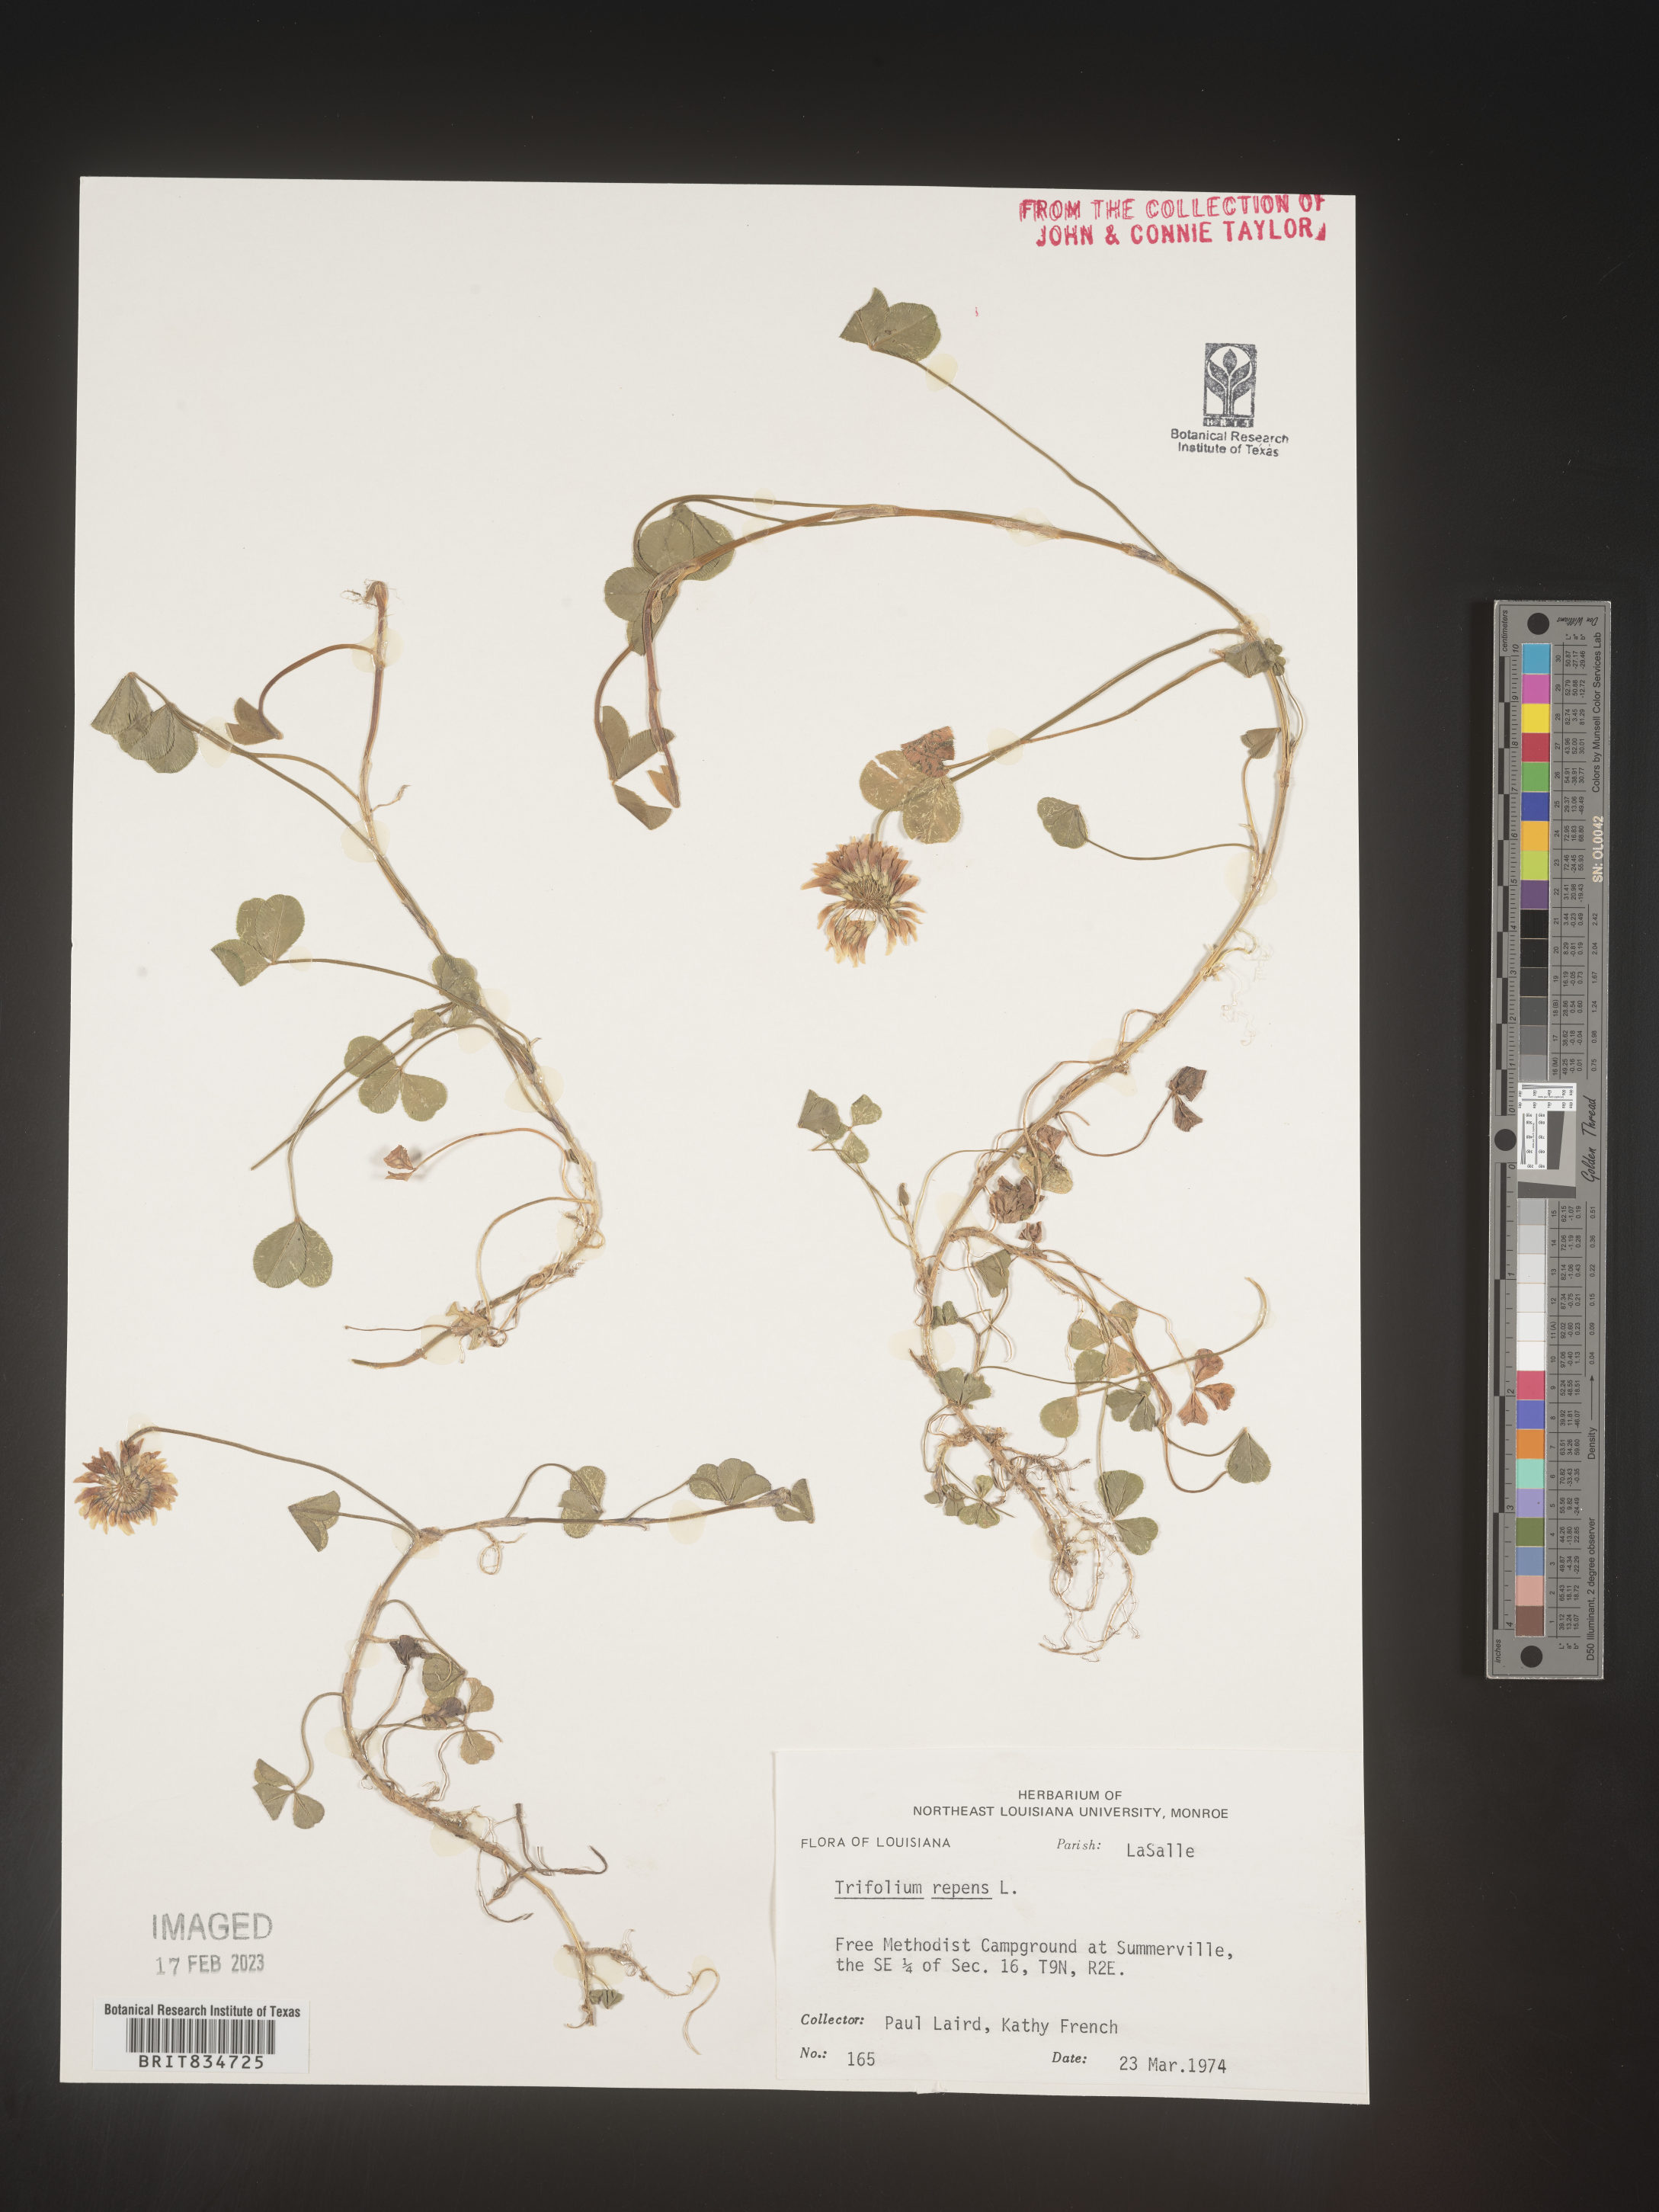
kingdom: Plantae
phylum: Tracheophyta
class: Magnoliopsida
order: Fabales
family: Fabaceae
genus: Trifolium
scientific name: Trifolium repens
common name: White clover
